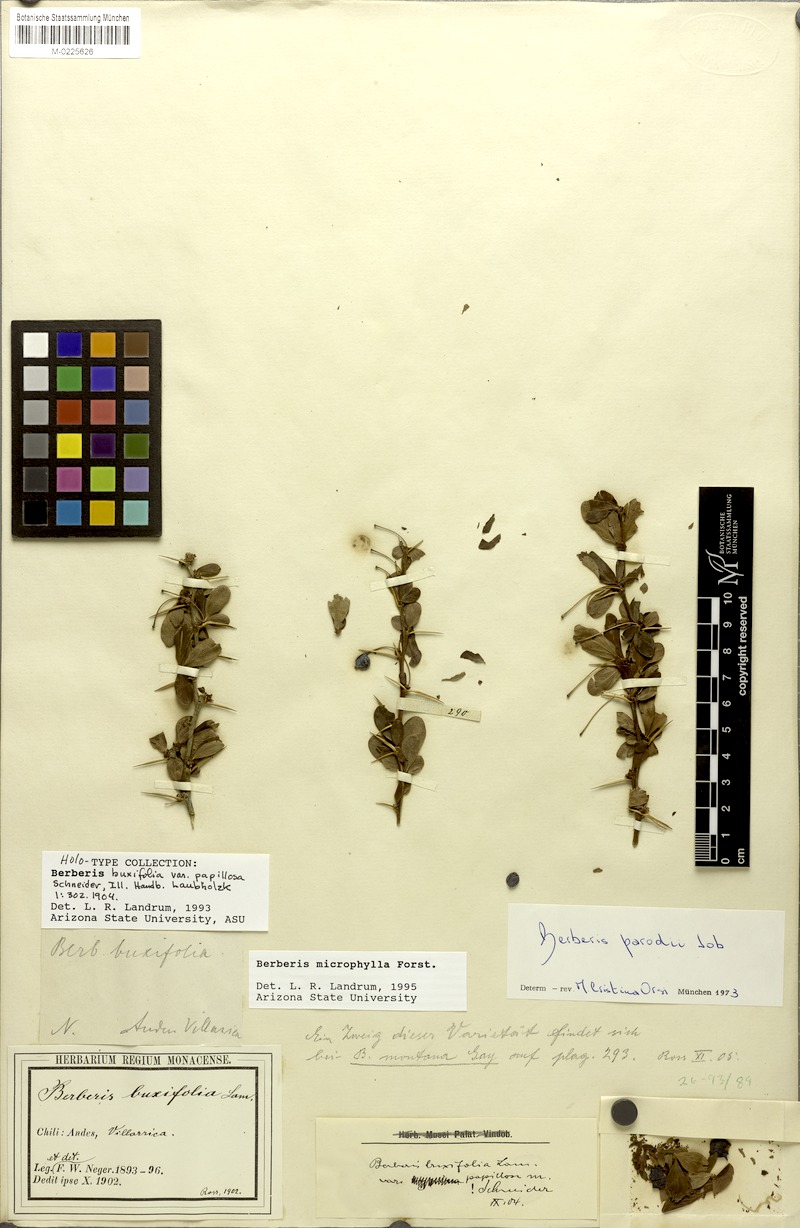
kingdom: Plantae
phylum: Tracheophyta
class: Magnoliopsida
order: Ranunculales
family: Berberidaceae
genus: Berberis
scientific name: Berberis microphylla
